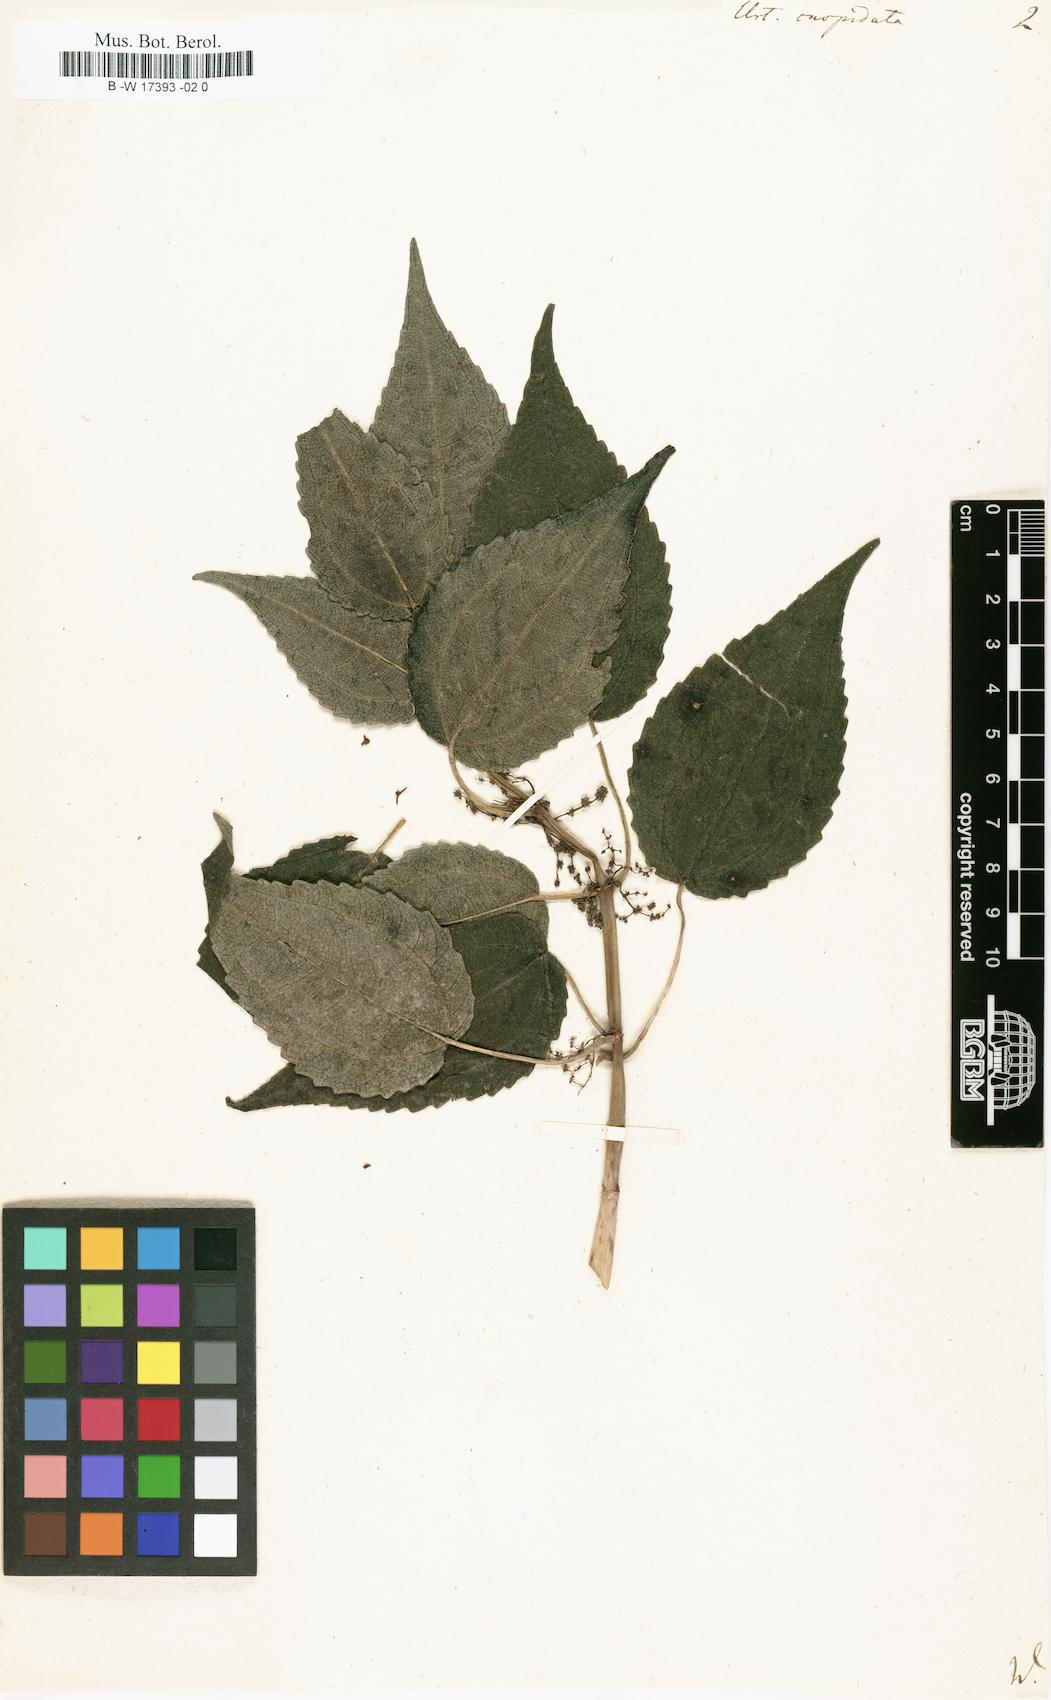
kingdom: Plantae
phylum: Tracheophyta
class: Magnoliopsida
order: Rosales
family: Urticaceae
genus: Pilea
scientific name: Pilea lucens
